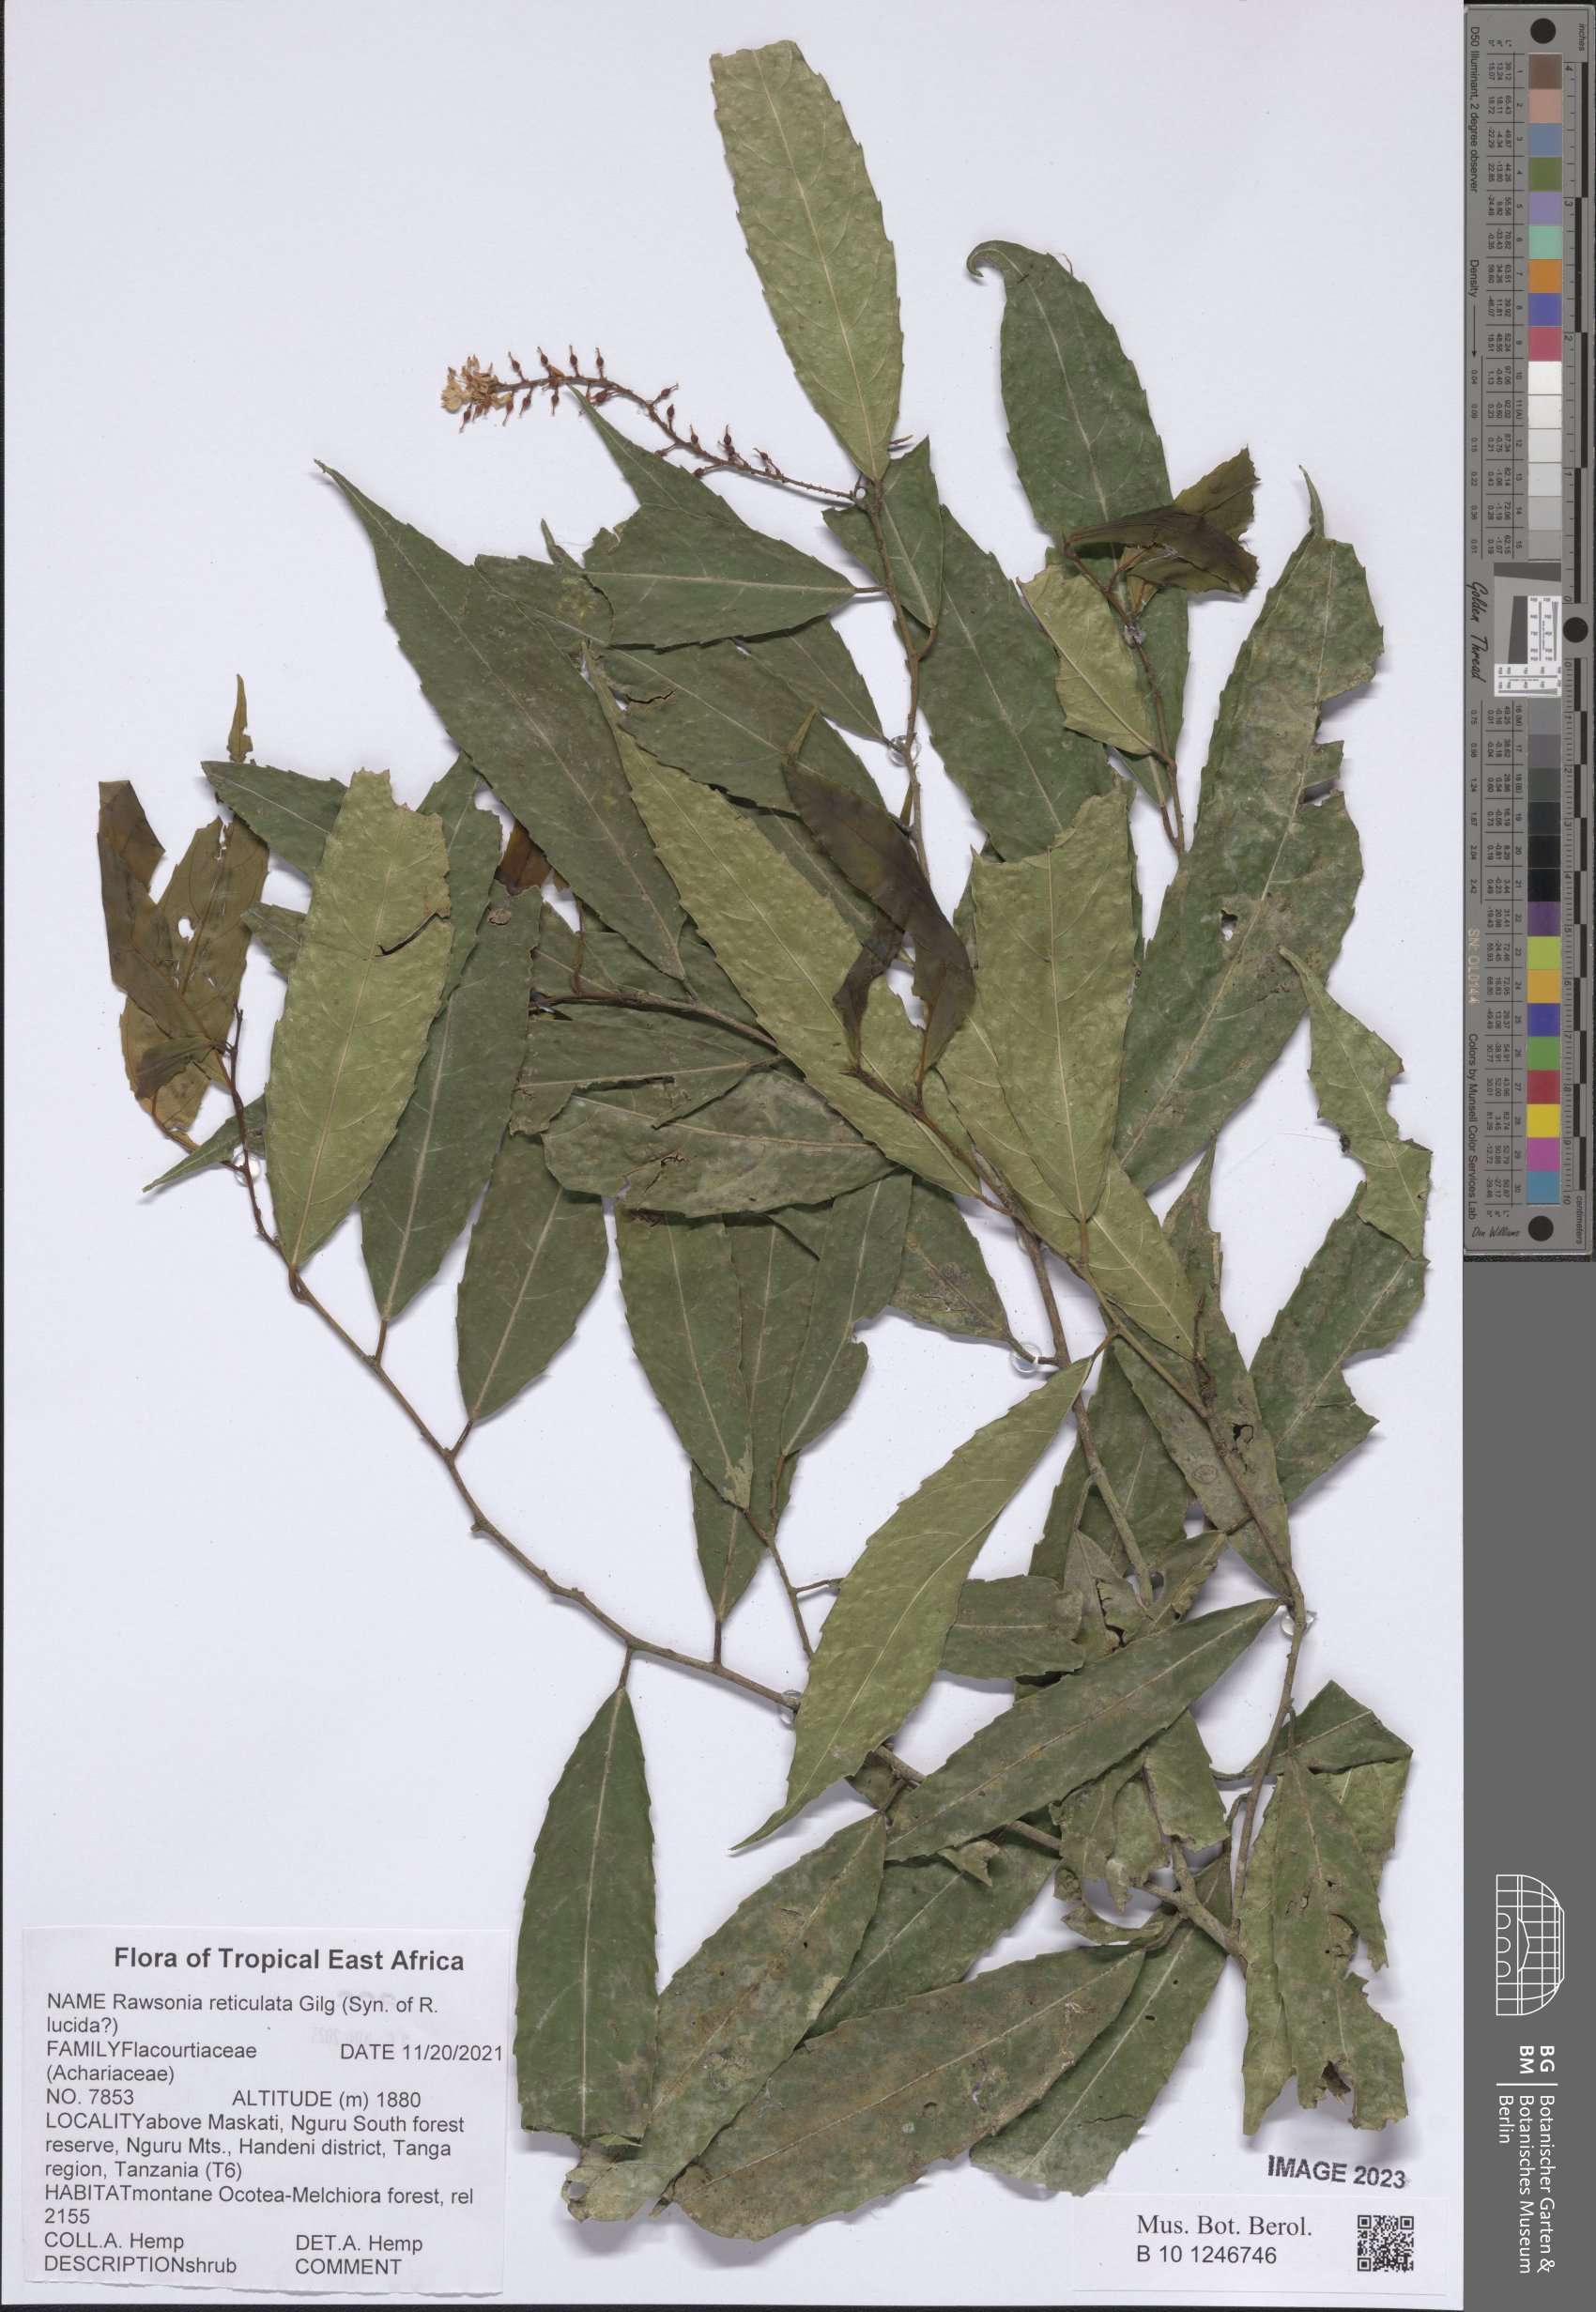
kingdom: Plantae
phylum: Tracheophyta
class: Magnoliopsida
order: Malpighiales
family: Achariaceae
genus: Rawsonia
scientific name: Rawsonia lucida
